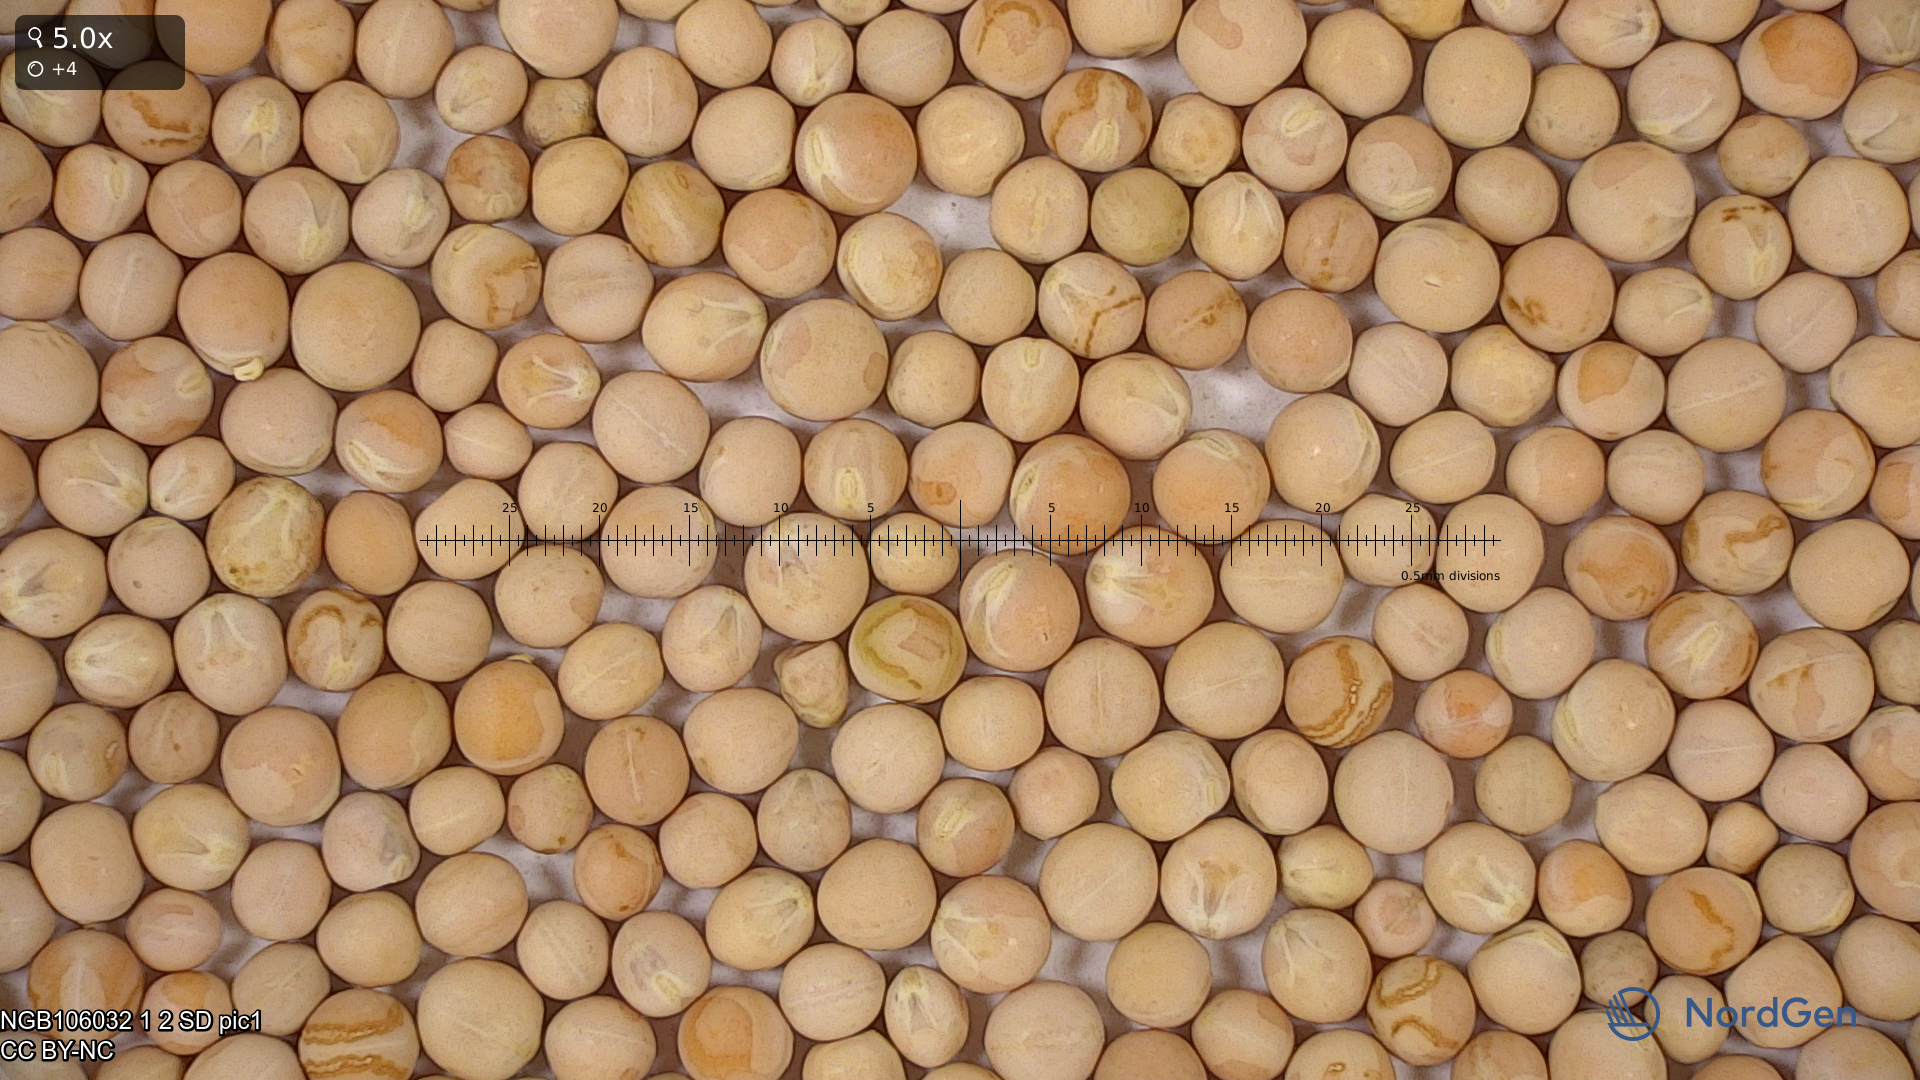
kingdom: Plantae
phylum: Tracheophyta
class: Magnoliopsida
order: Fabales
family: Fabaceae
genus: Lathyrus
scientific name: Lathyrus oleraceus
